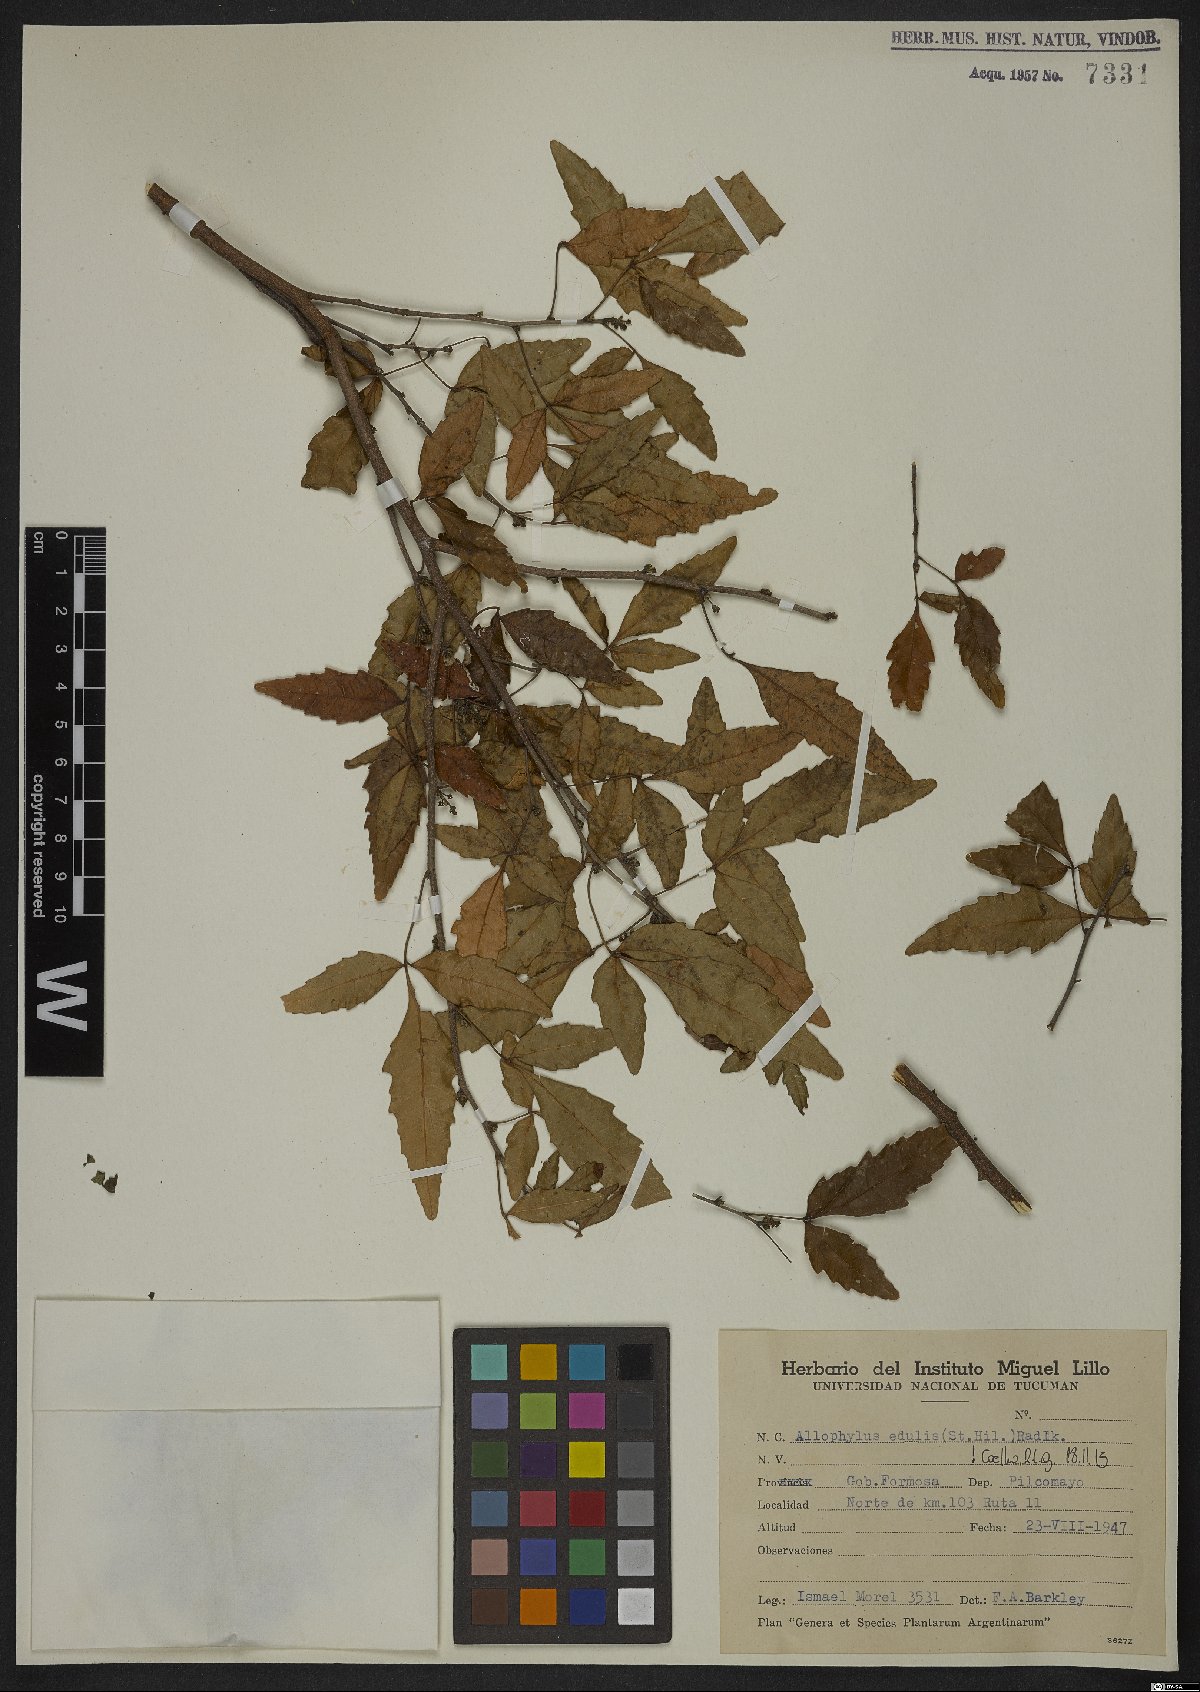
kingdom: Plantae
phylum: Tracheophyta
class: Magnoliopsida
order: Sapindales
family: Sapindaceae
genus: Allophylus
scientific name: Allophylus edulis
